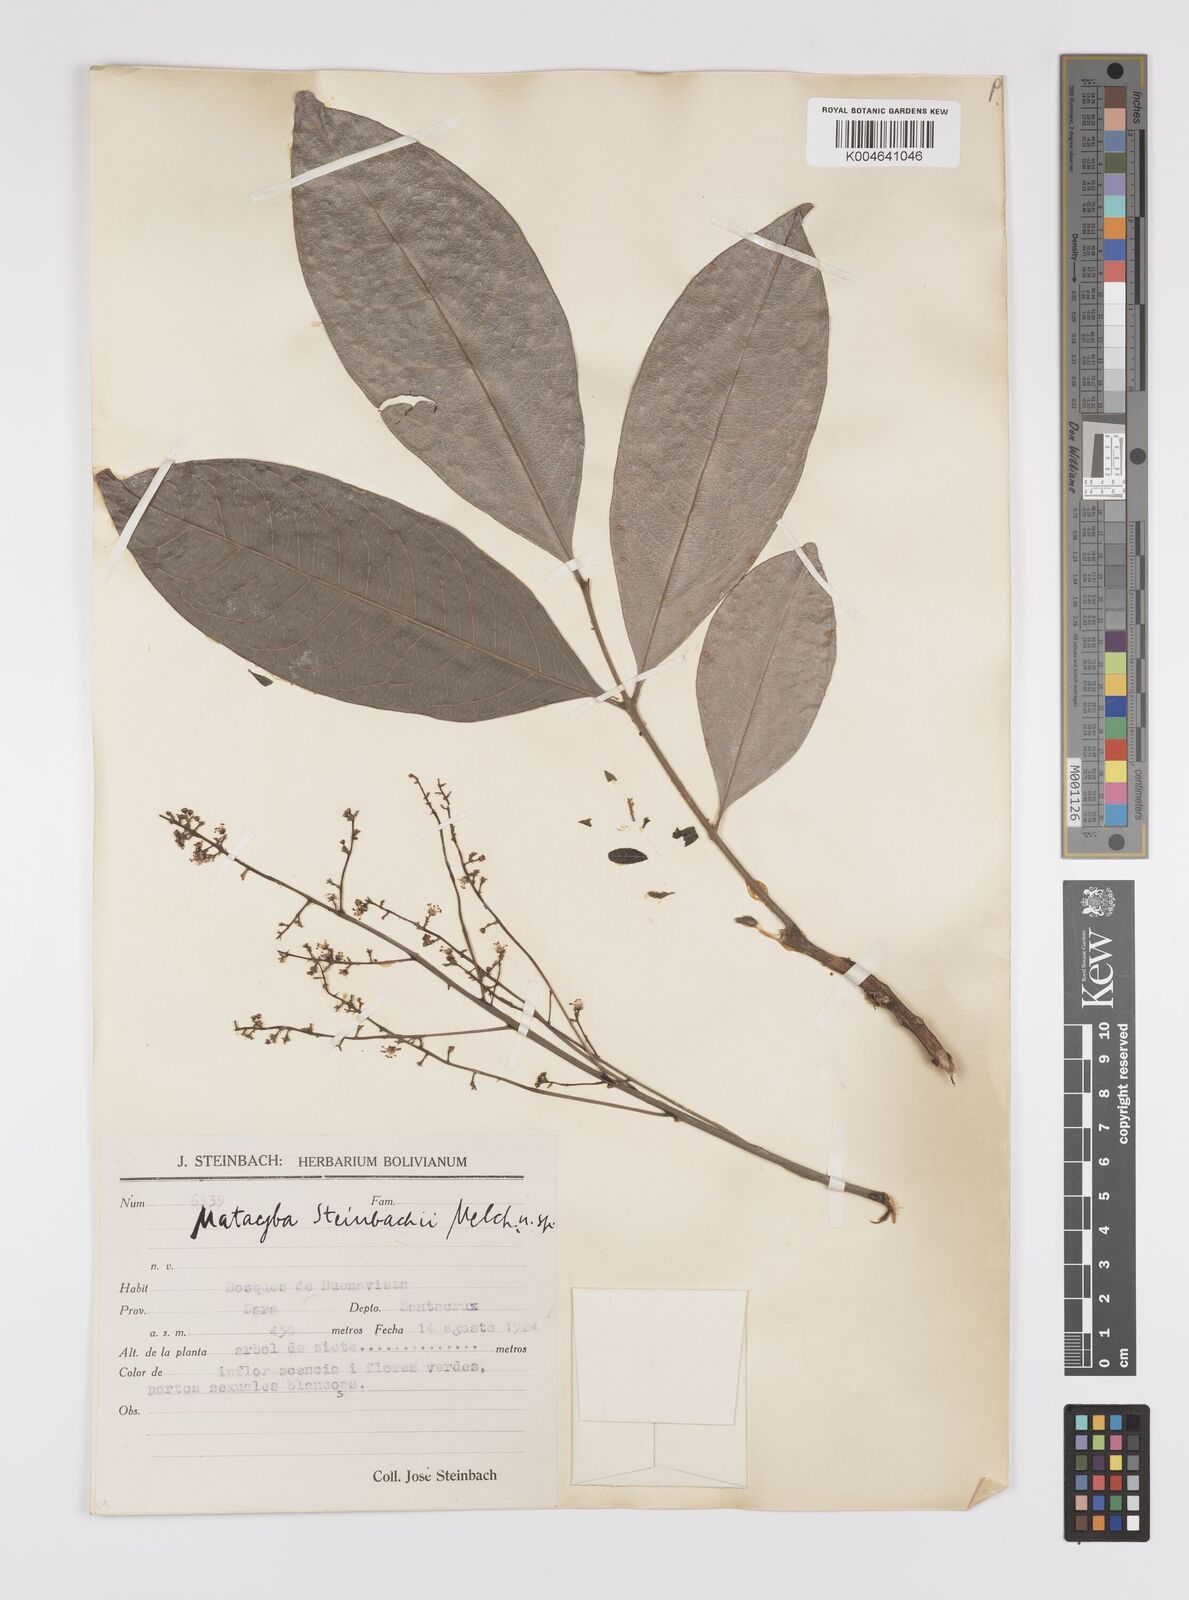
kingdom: Plantae
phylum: Tracheophyta
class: Magnoliopsida
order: Sapindales
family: Sapindaceae
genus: Matayba
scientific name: Matayba guianensis
